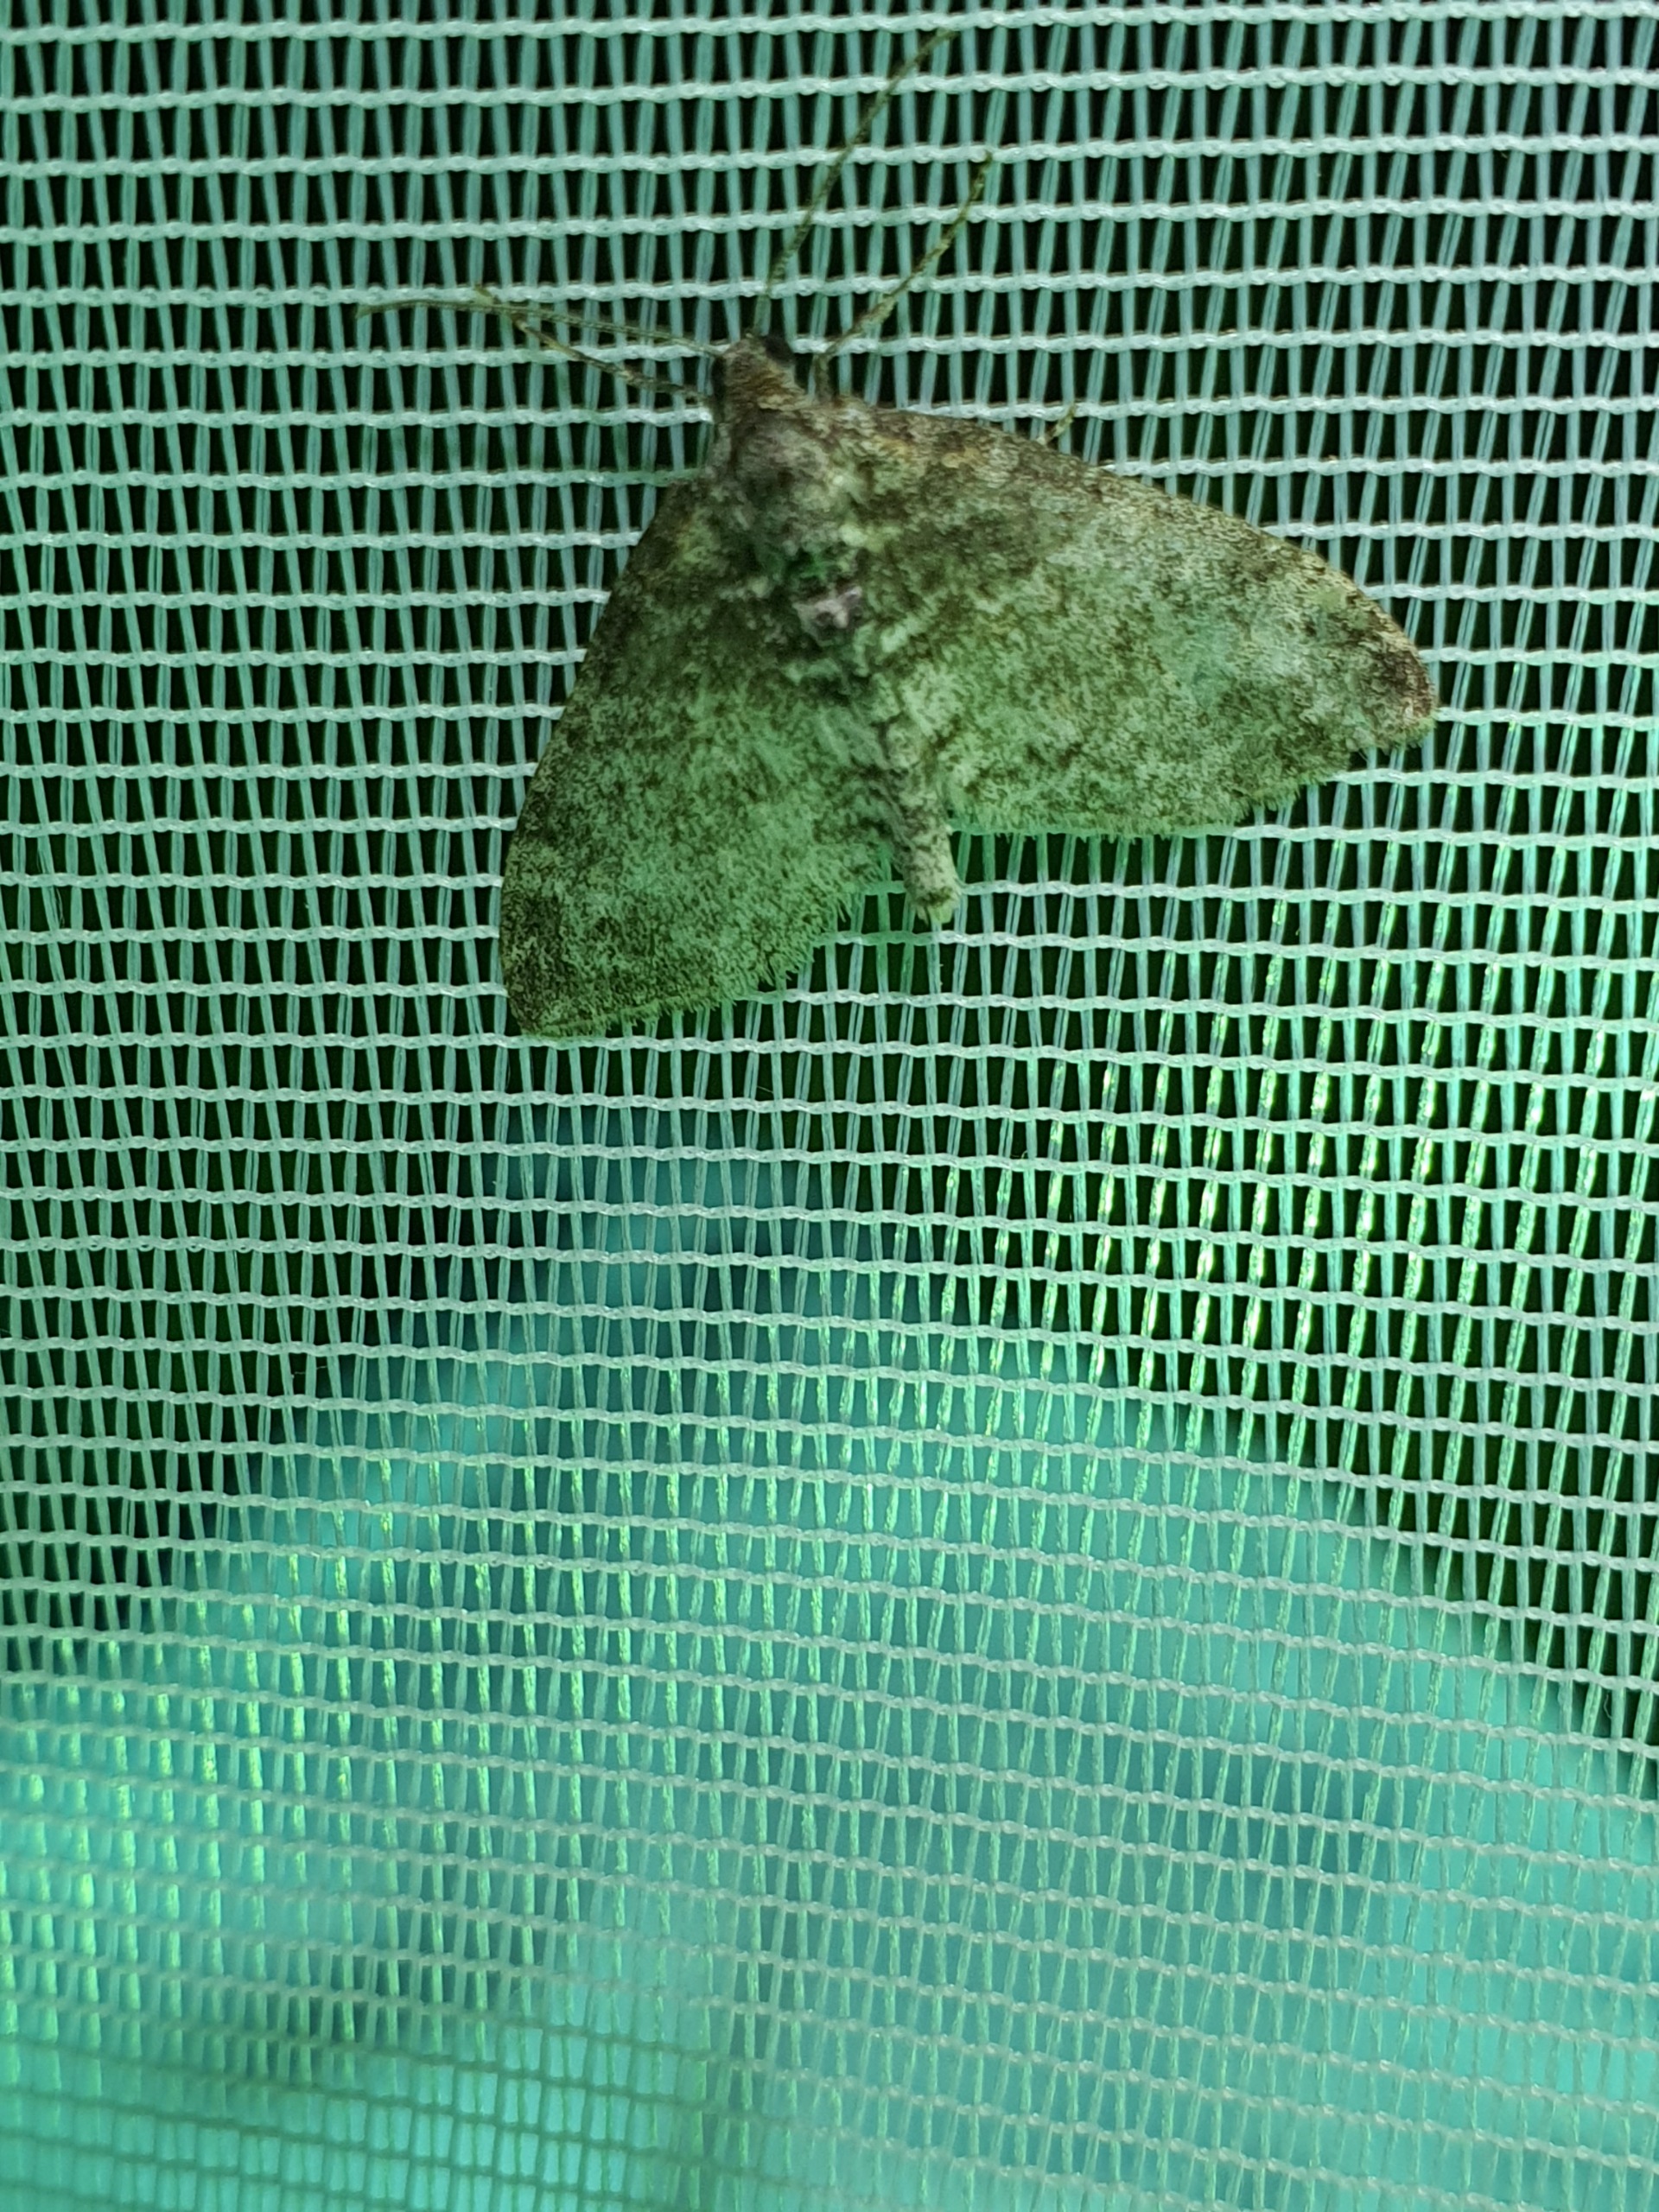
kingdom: Animalia
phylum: Arthropoda
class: Insecta
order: Lepidoptera
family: Geometridae
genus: Lobophora
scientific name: Lobophora halterata
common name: Poppel-lapvinge
